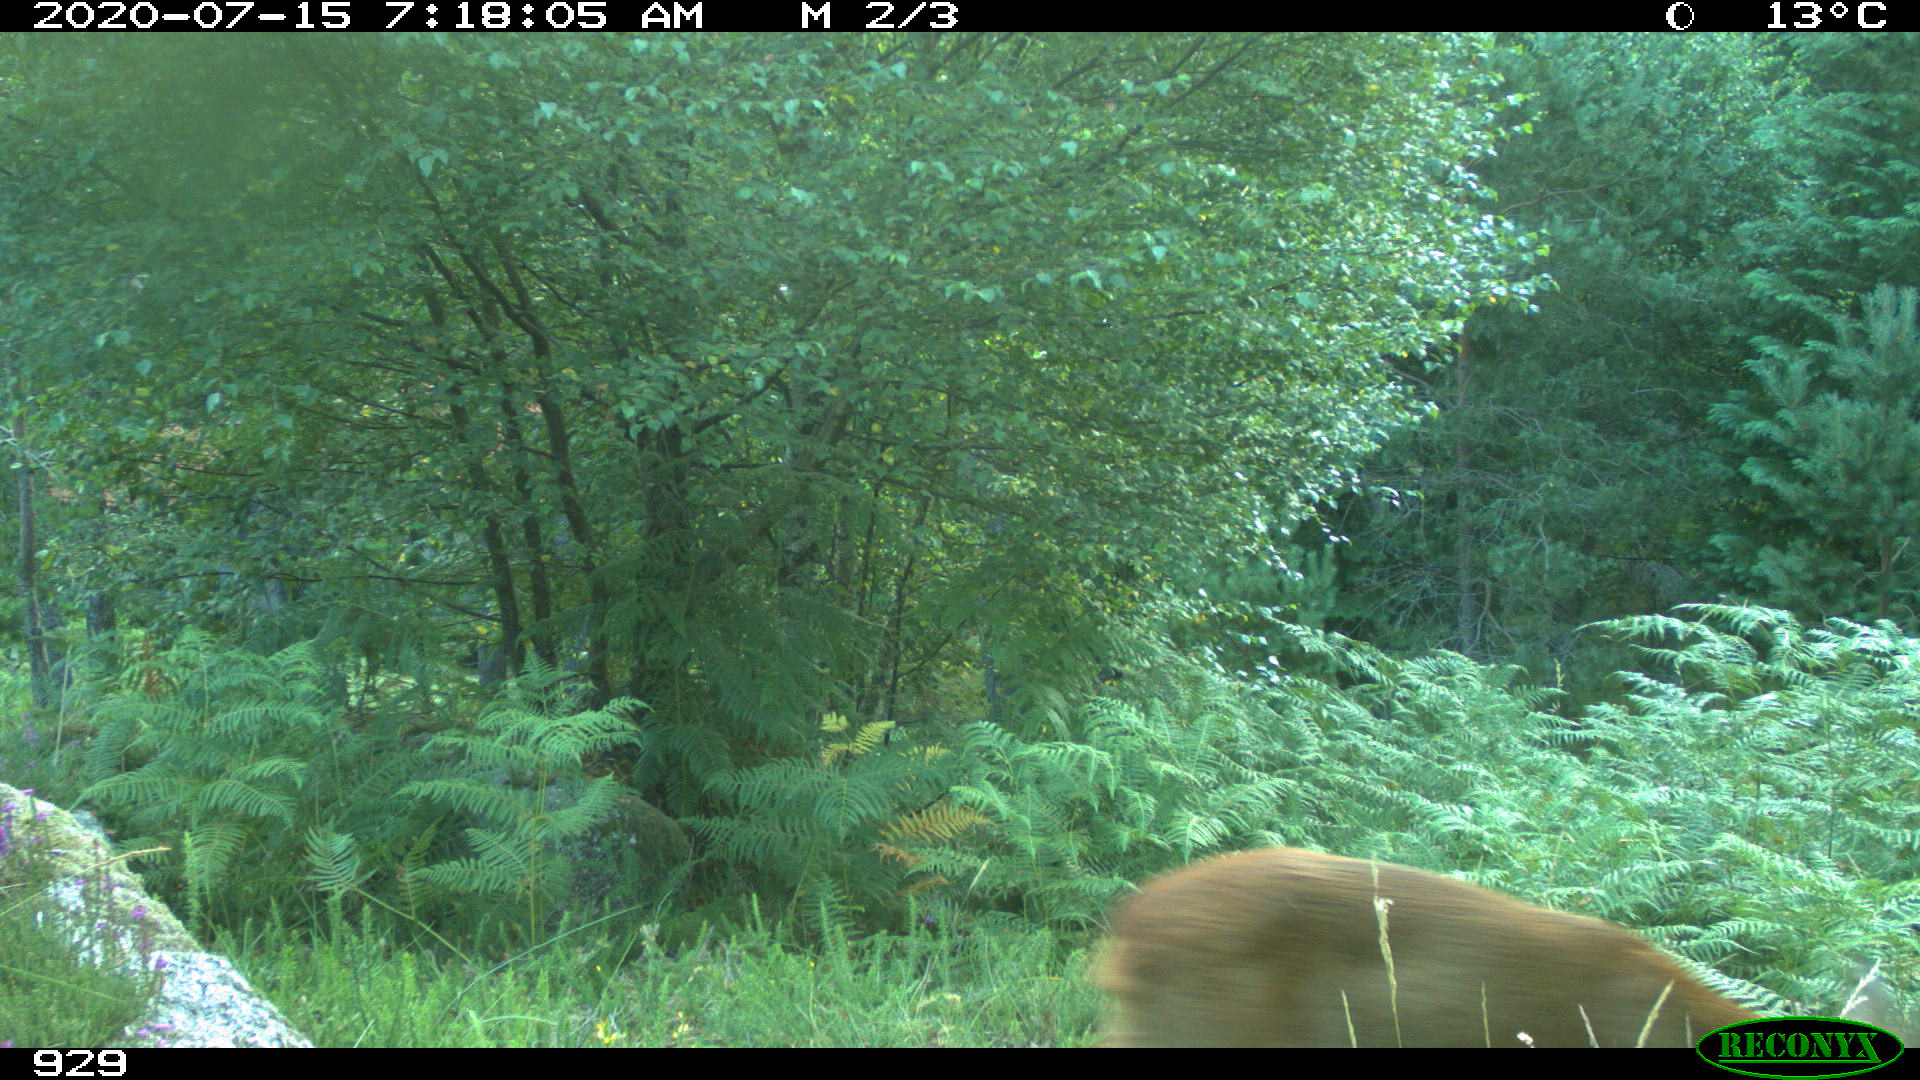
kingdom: Animalia
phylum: Chordata
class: Mammalia
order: Artiodactyla
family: Cervidae
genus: Capreolus
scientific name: Capreolus capreolus
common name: Western roe deer
